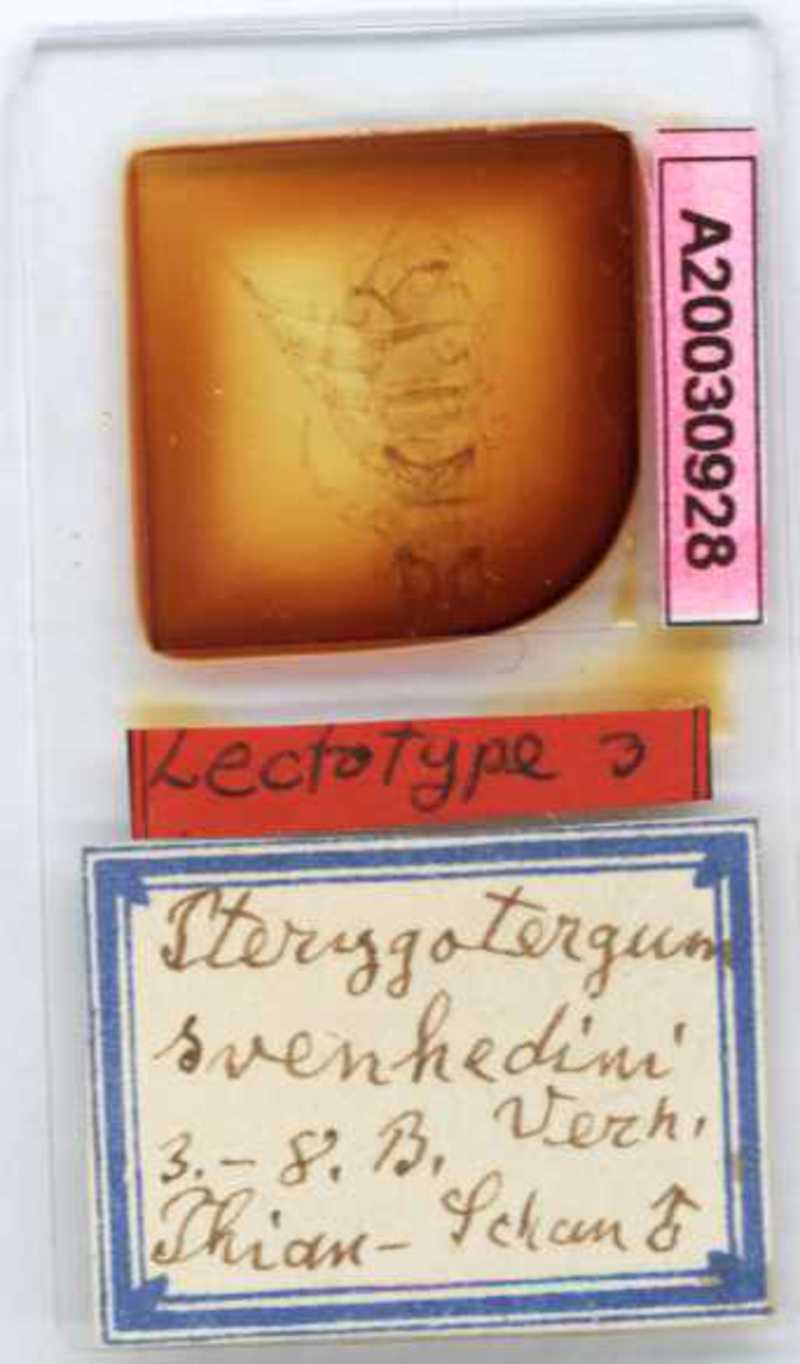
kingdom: Animalia
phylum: Arthropoda
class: Chilopoda
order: Lithobiomorpha
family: Lithobiidae
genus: Pterygotergum
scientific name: Pterygotergum svenhedini
